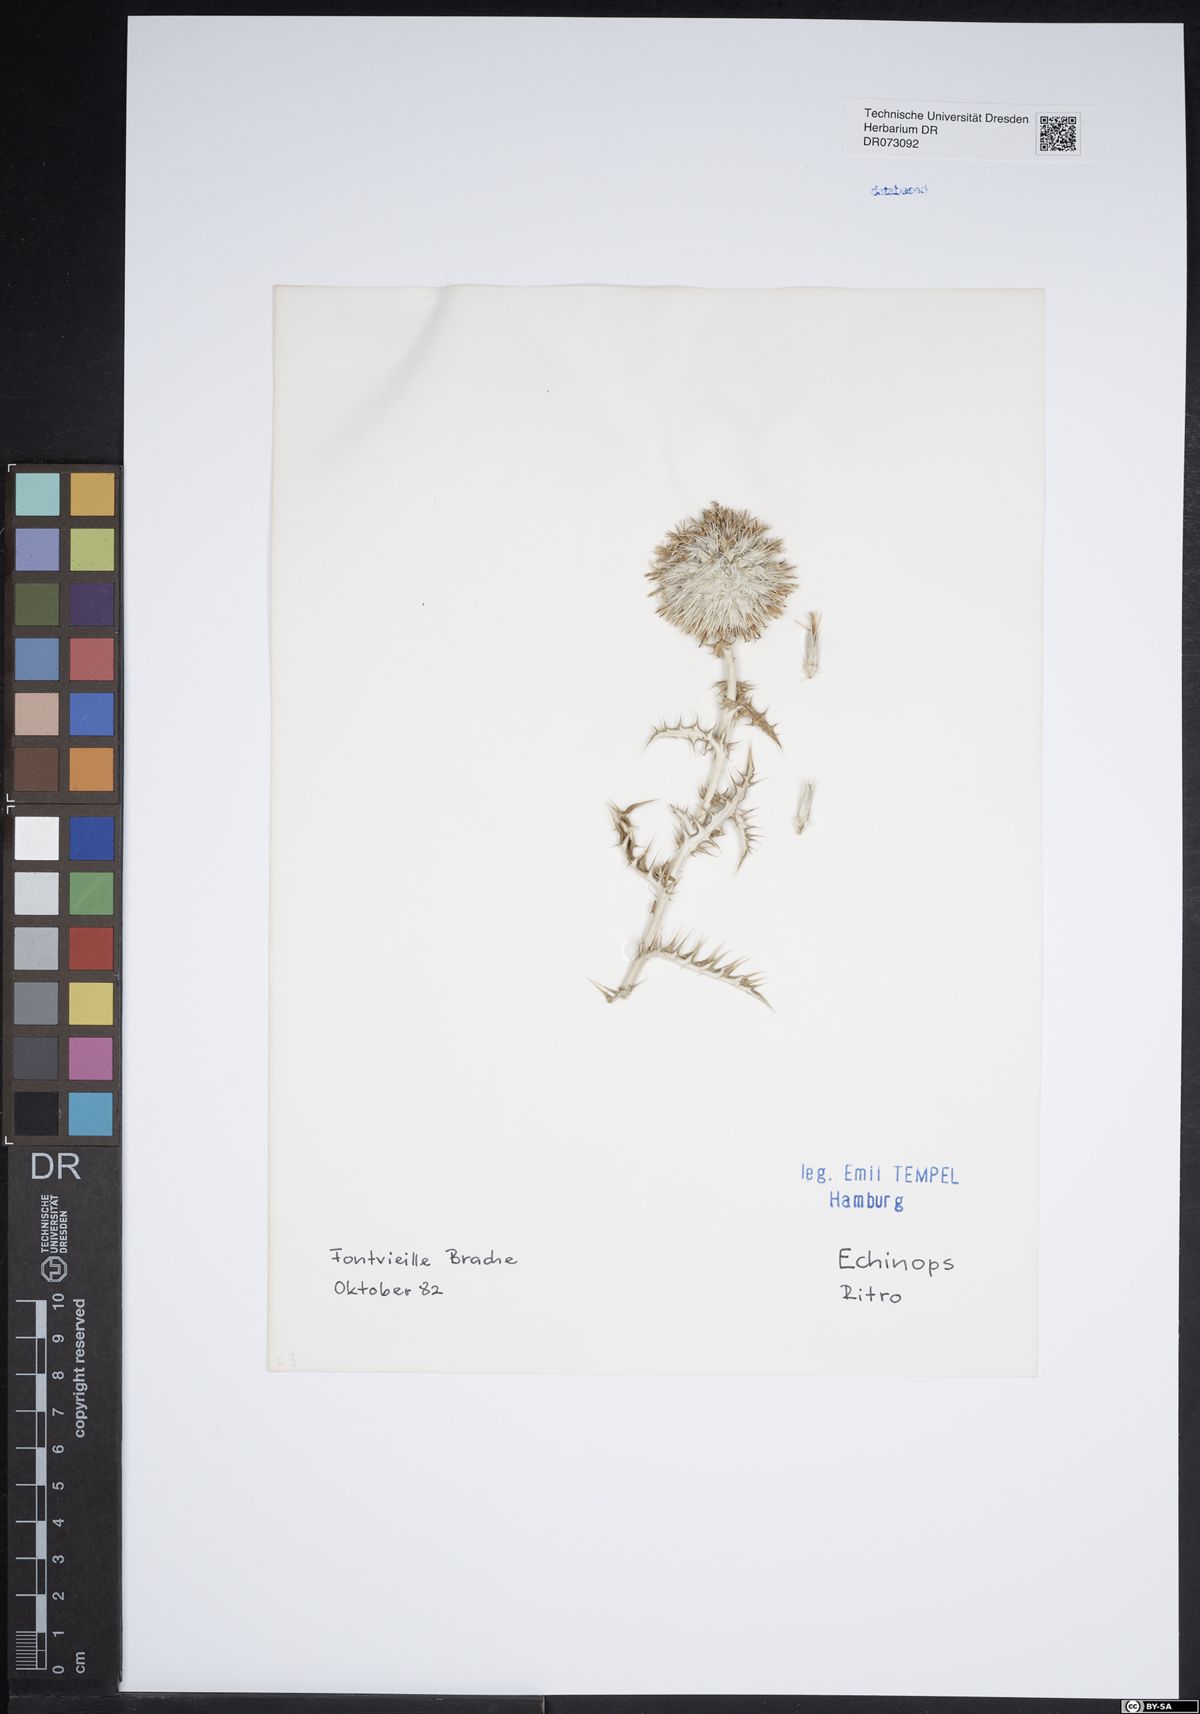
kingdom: Plantae
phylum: Tracheophyta
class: Magnoliopsida
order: Asterales
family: Asteraceae
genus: Xanthium
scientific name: Xanthium spinosum
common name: Spiny cocklebur
